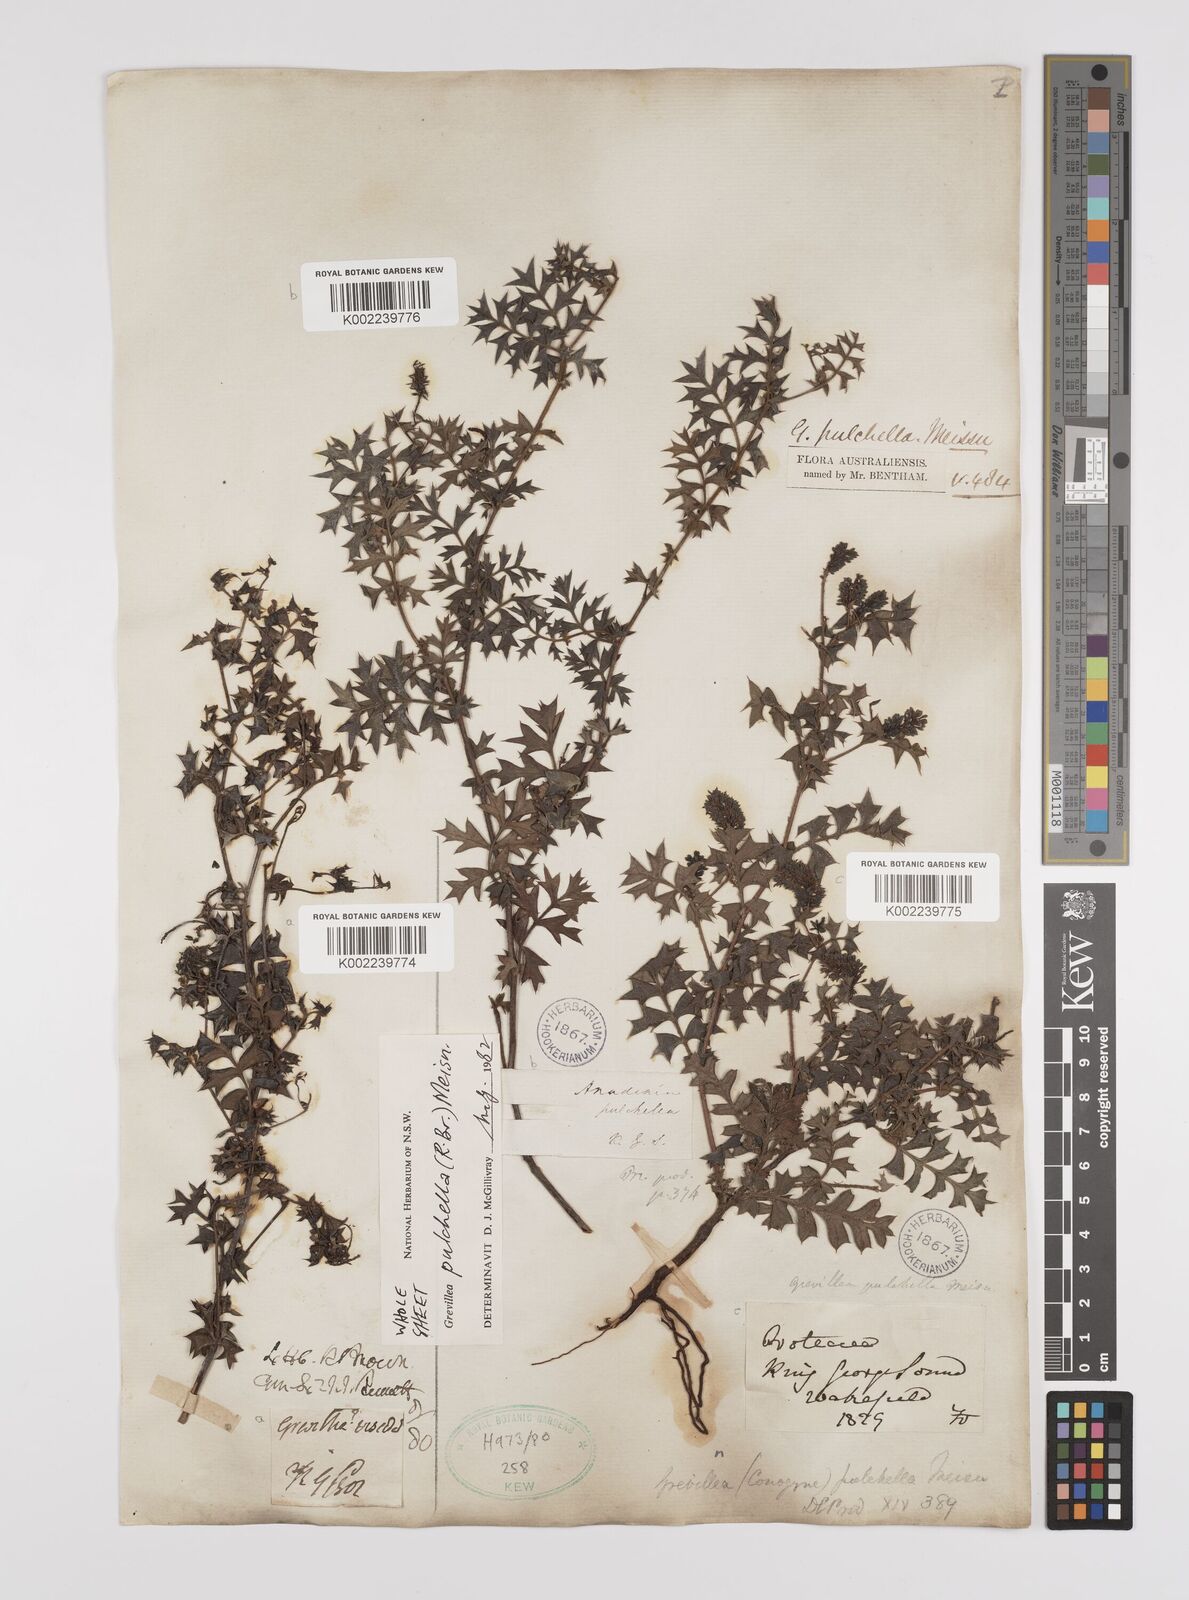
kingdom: Plantae
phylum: Tracheophyta
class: Magnoliopsida
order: Proteales
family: Proteaceae
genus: Grevillea
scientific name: Grevillea pulchella
